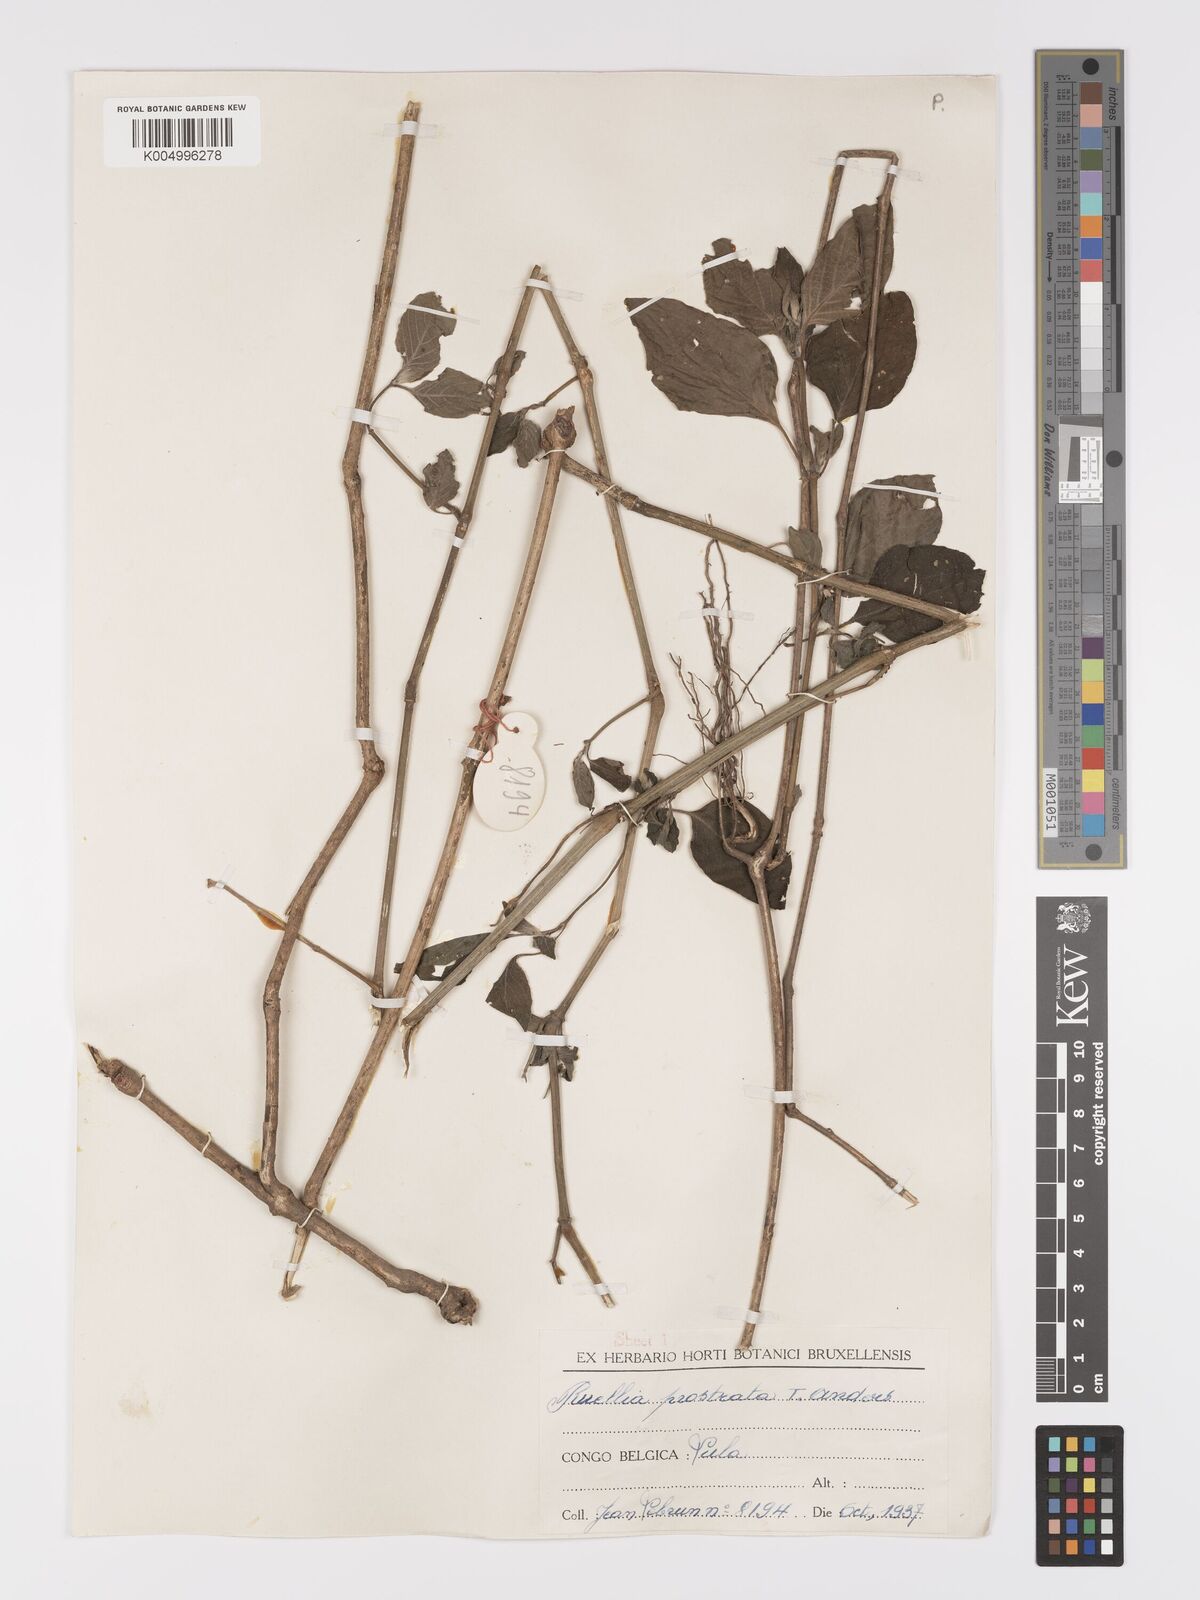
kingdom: Plantae
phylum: Tracheophyta
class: Magnoliopsida
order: Lamiales
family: Acanthaceae
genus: Ruellia
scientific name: Ruellia
